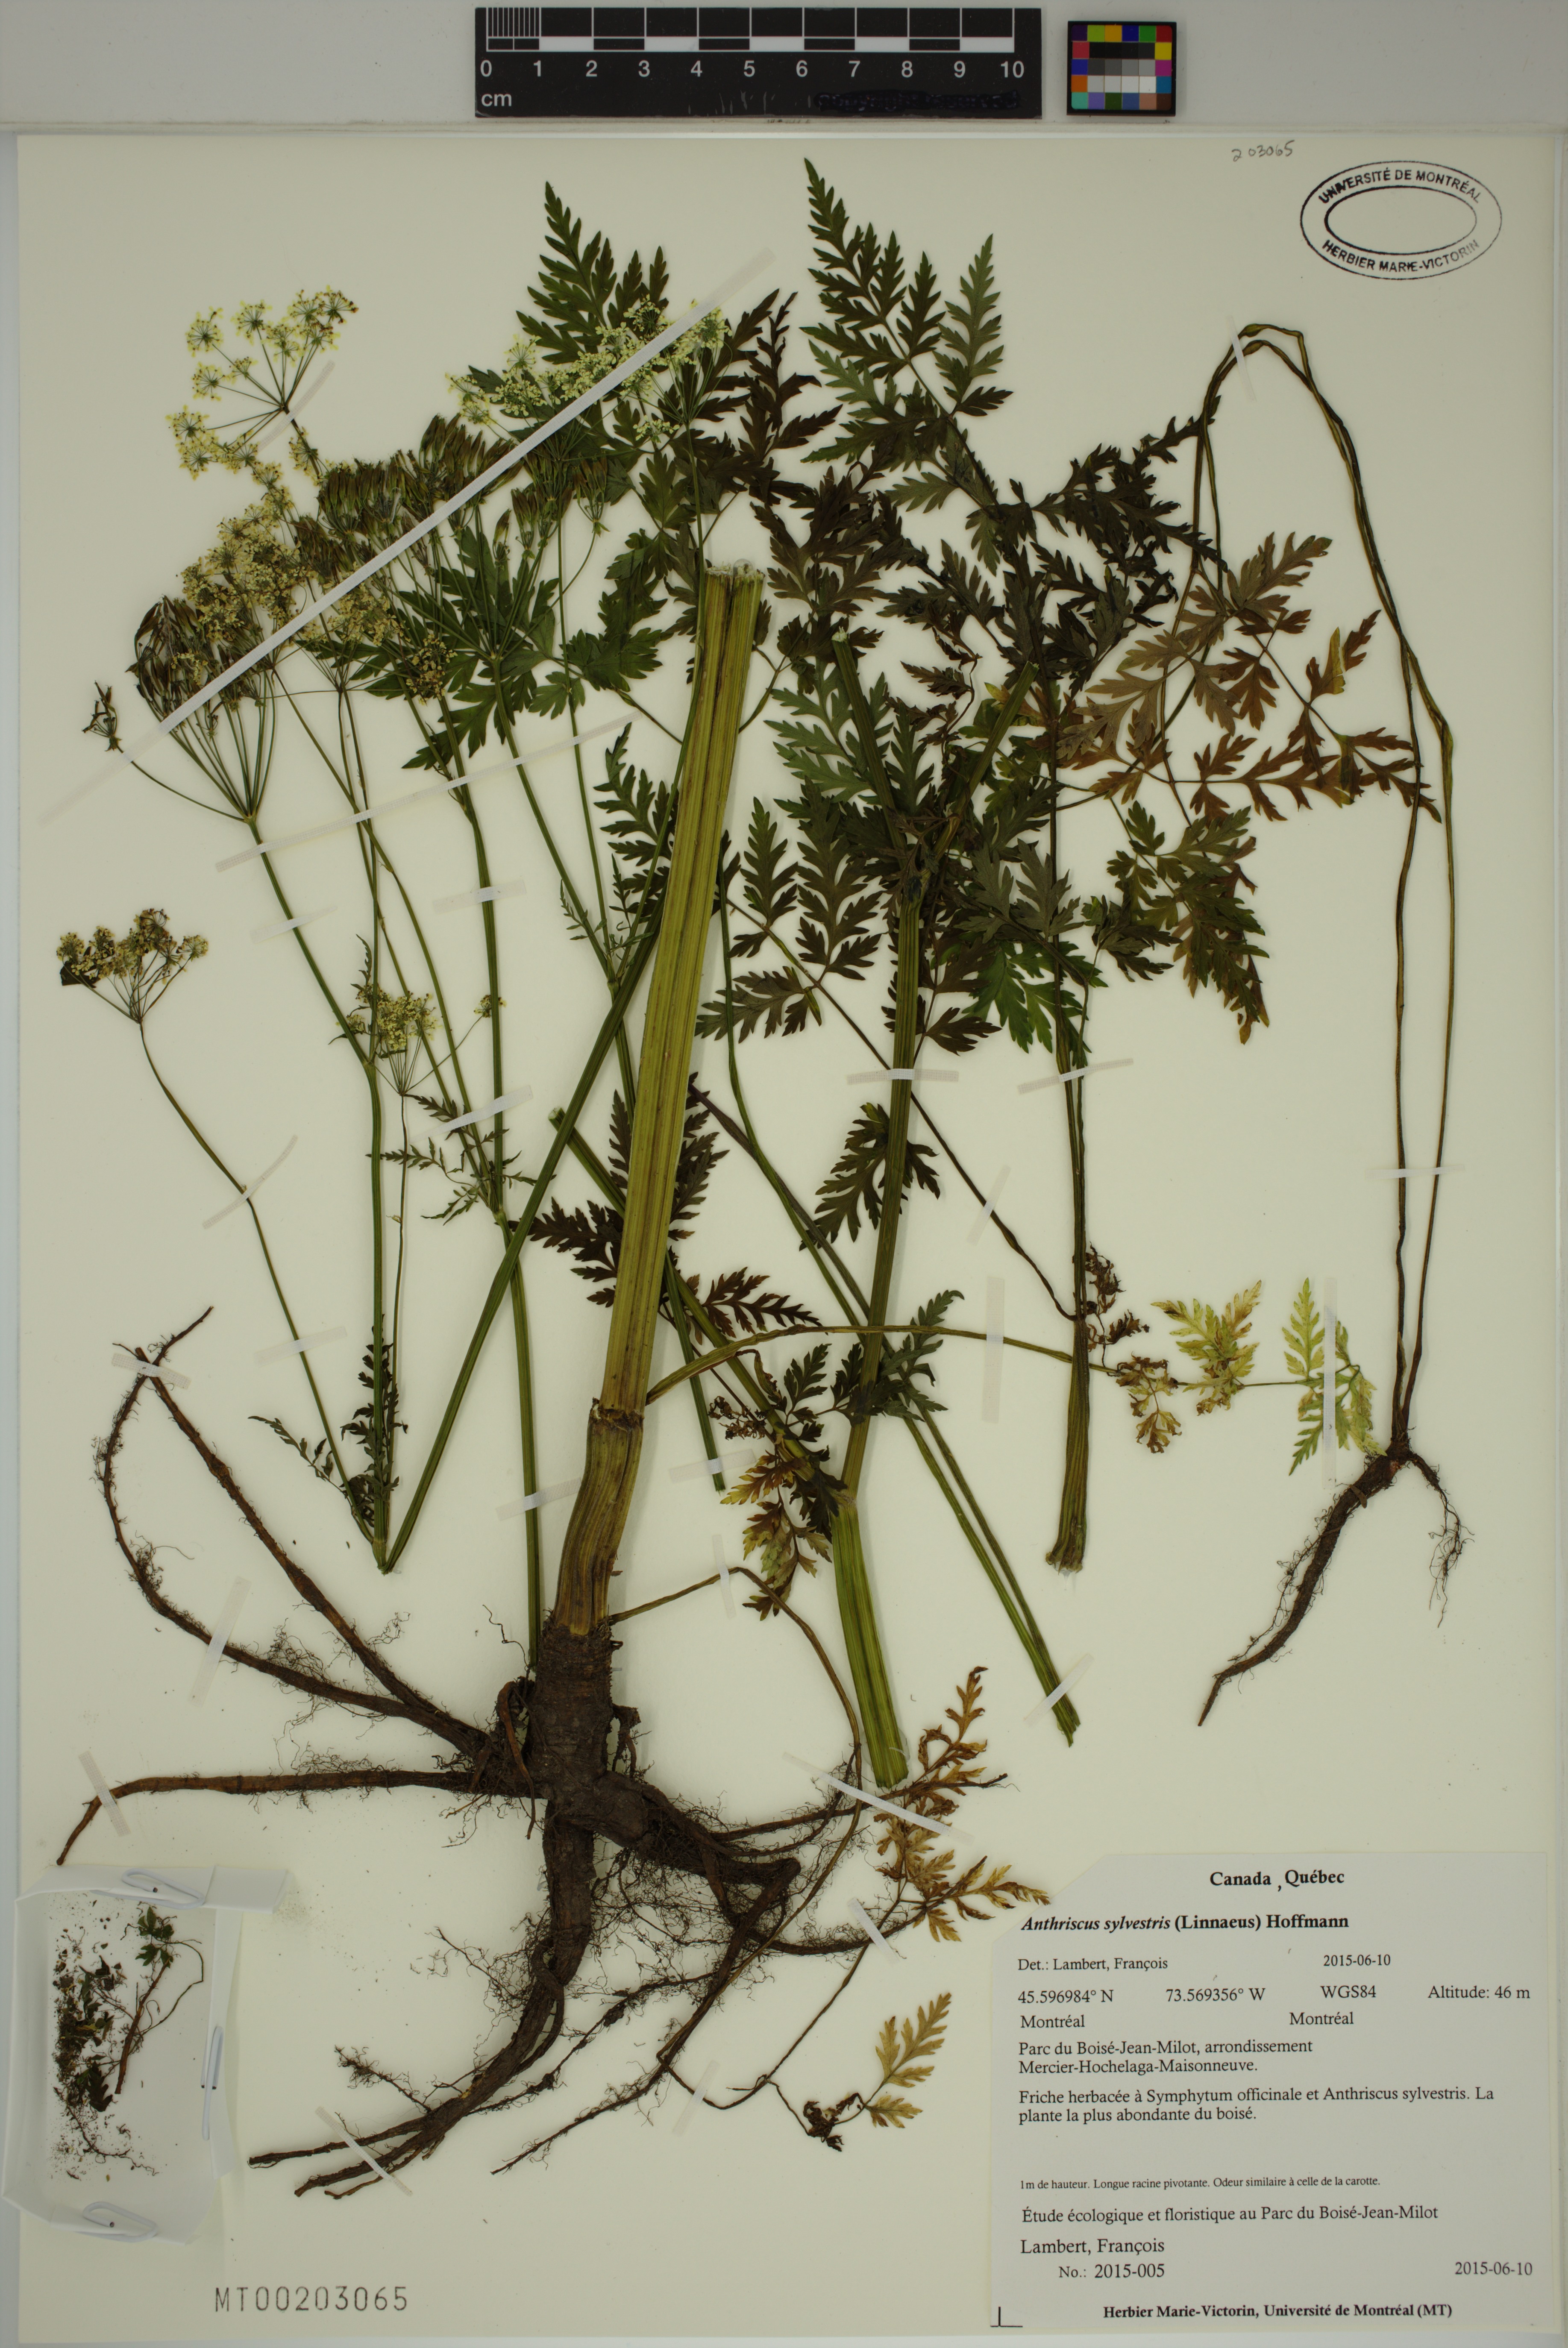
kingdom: Plantae
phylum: Tracheophyta
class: Magnoliopsida
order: Apiales
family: Apiaceae
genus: Anthriscus
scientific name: Anthriscus sylvestris
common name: Cow parsley
